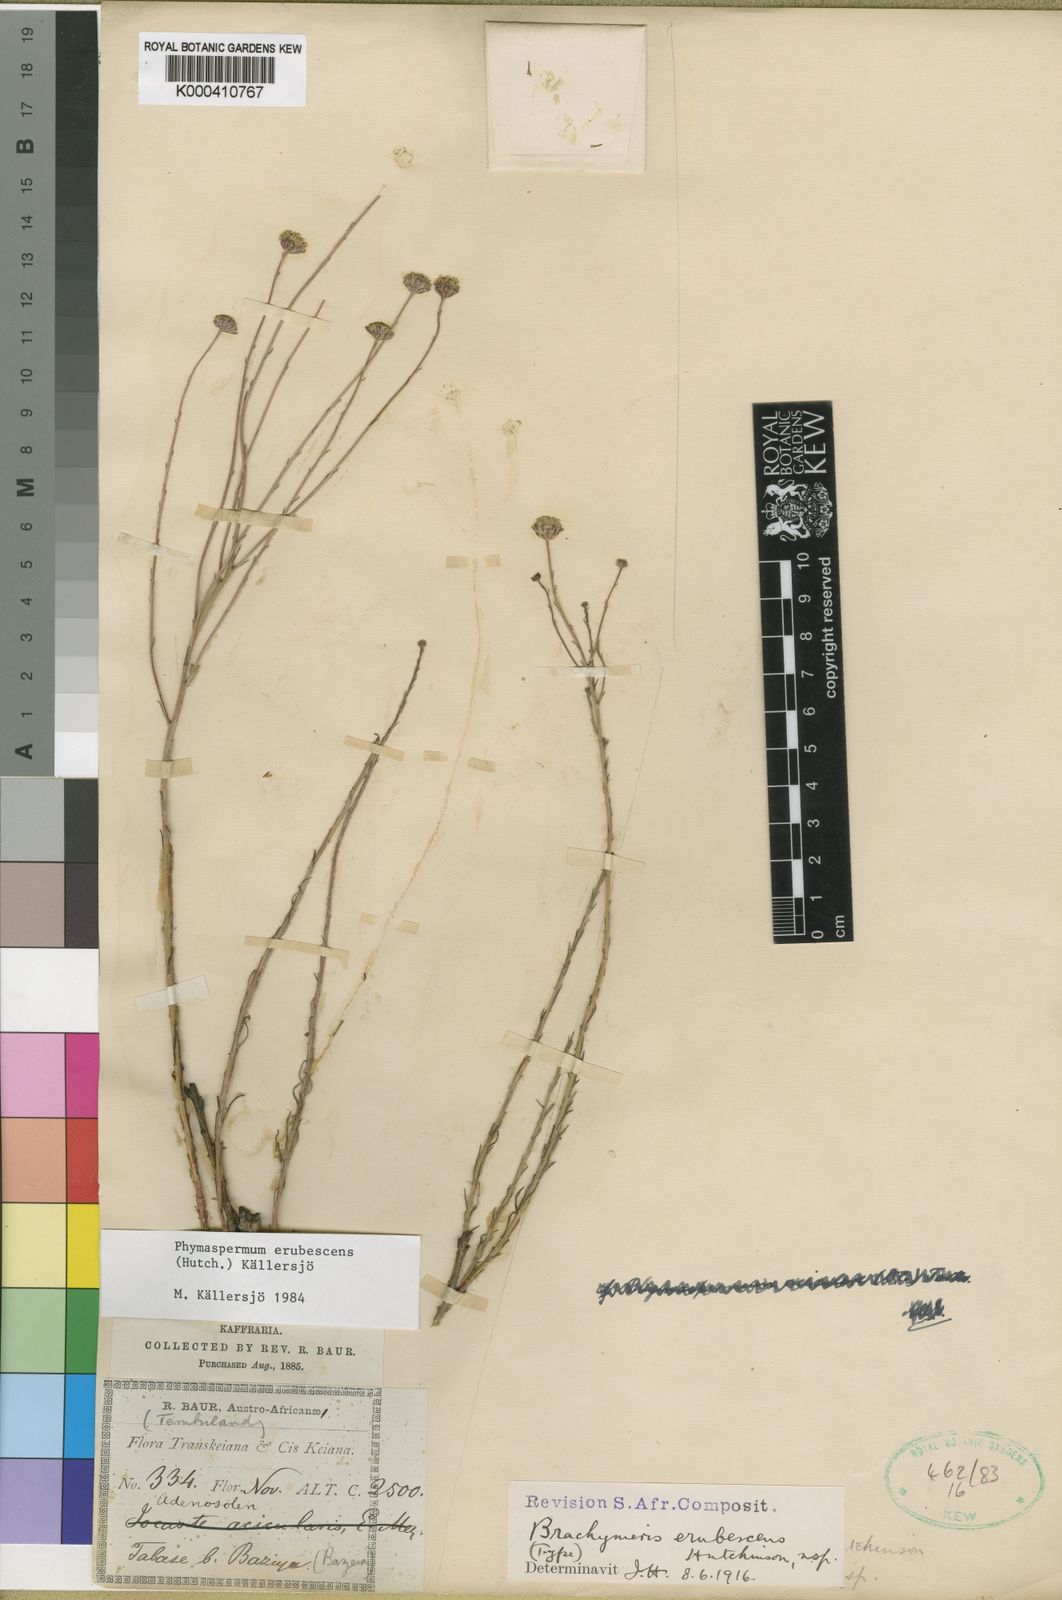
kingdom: Plantae
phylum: Tracheophyta
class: Magnoliopsida
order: Asterales
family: Asteraceae
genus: Phymaspermum
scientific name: Phymaspermum
